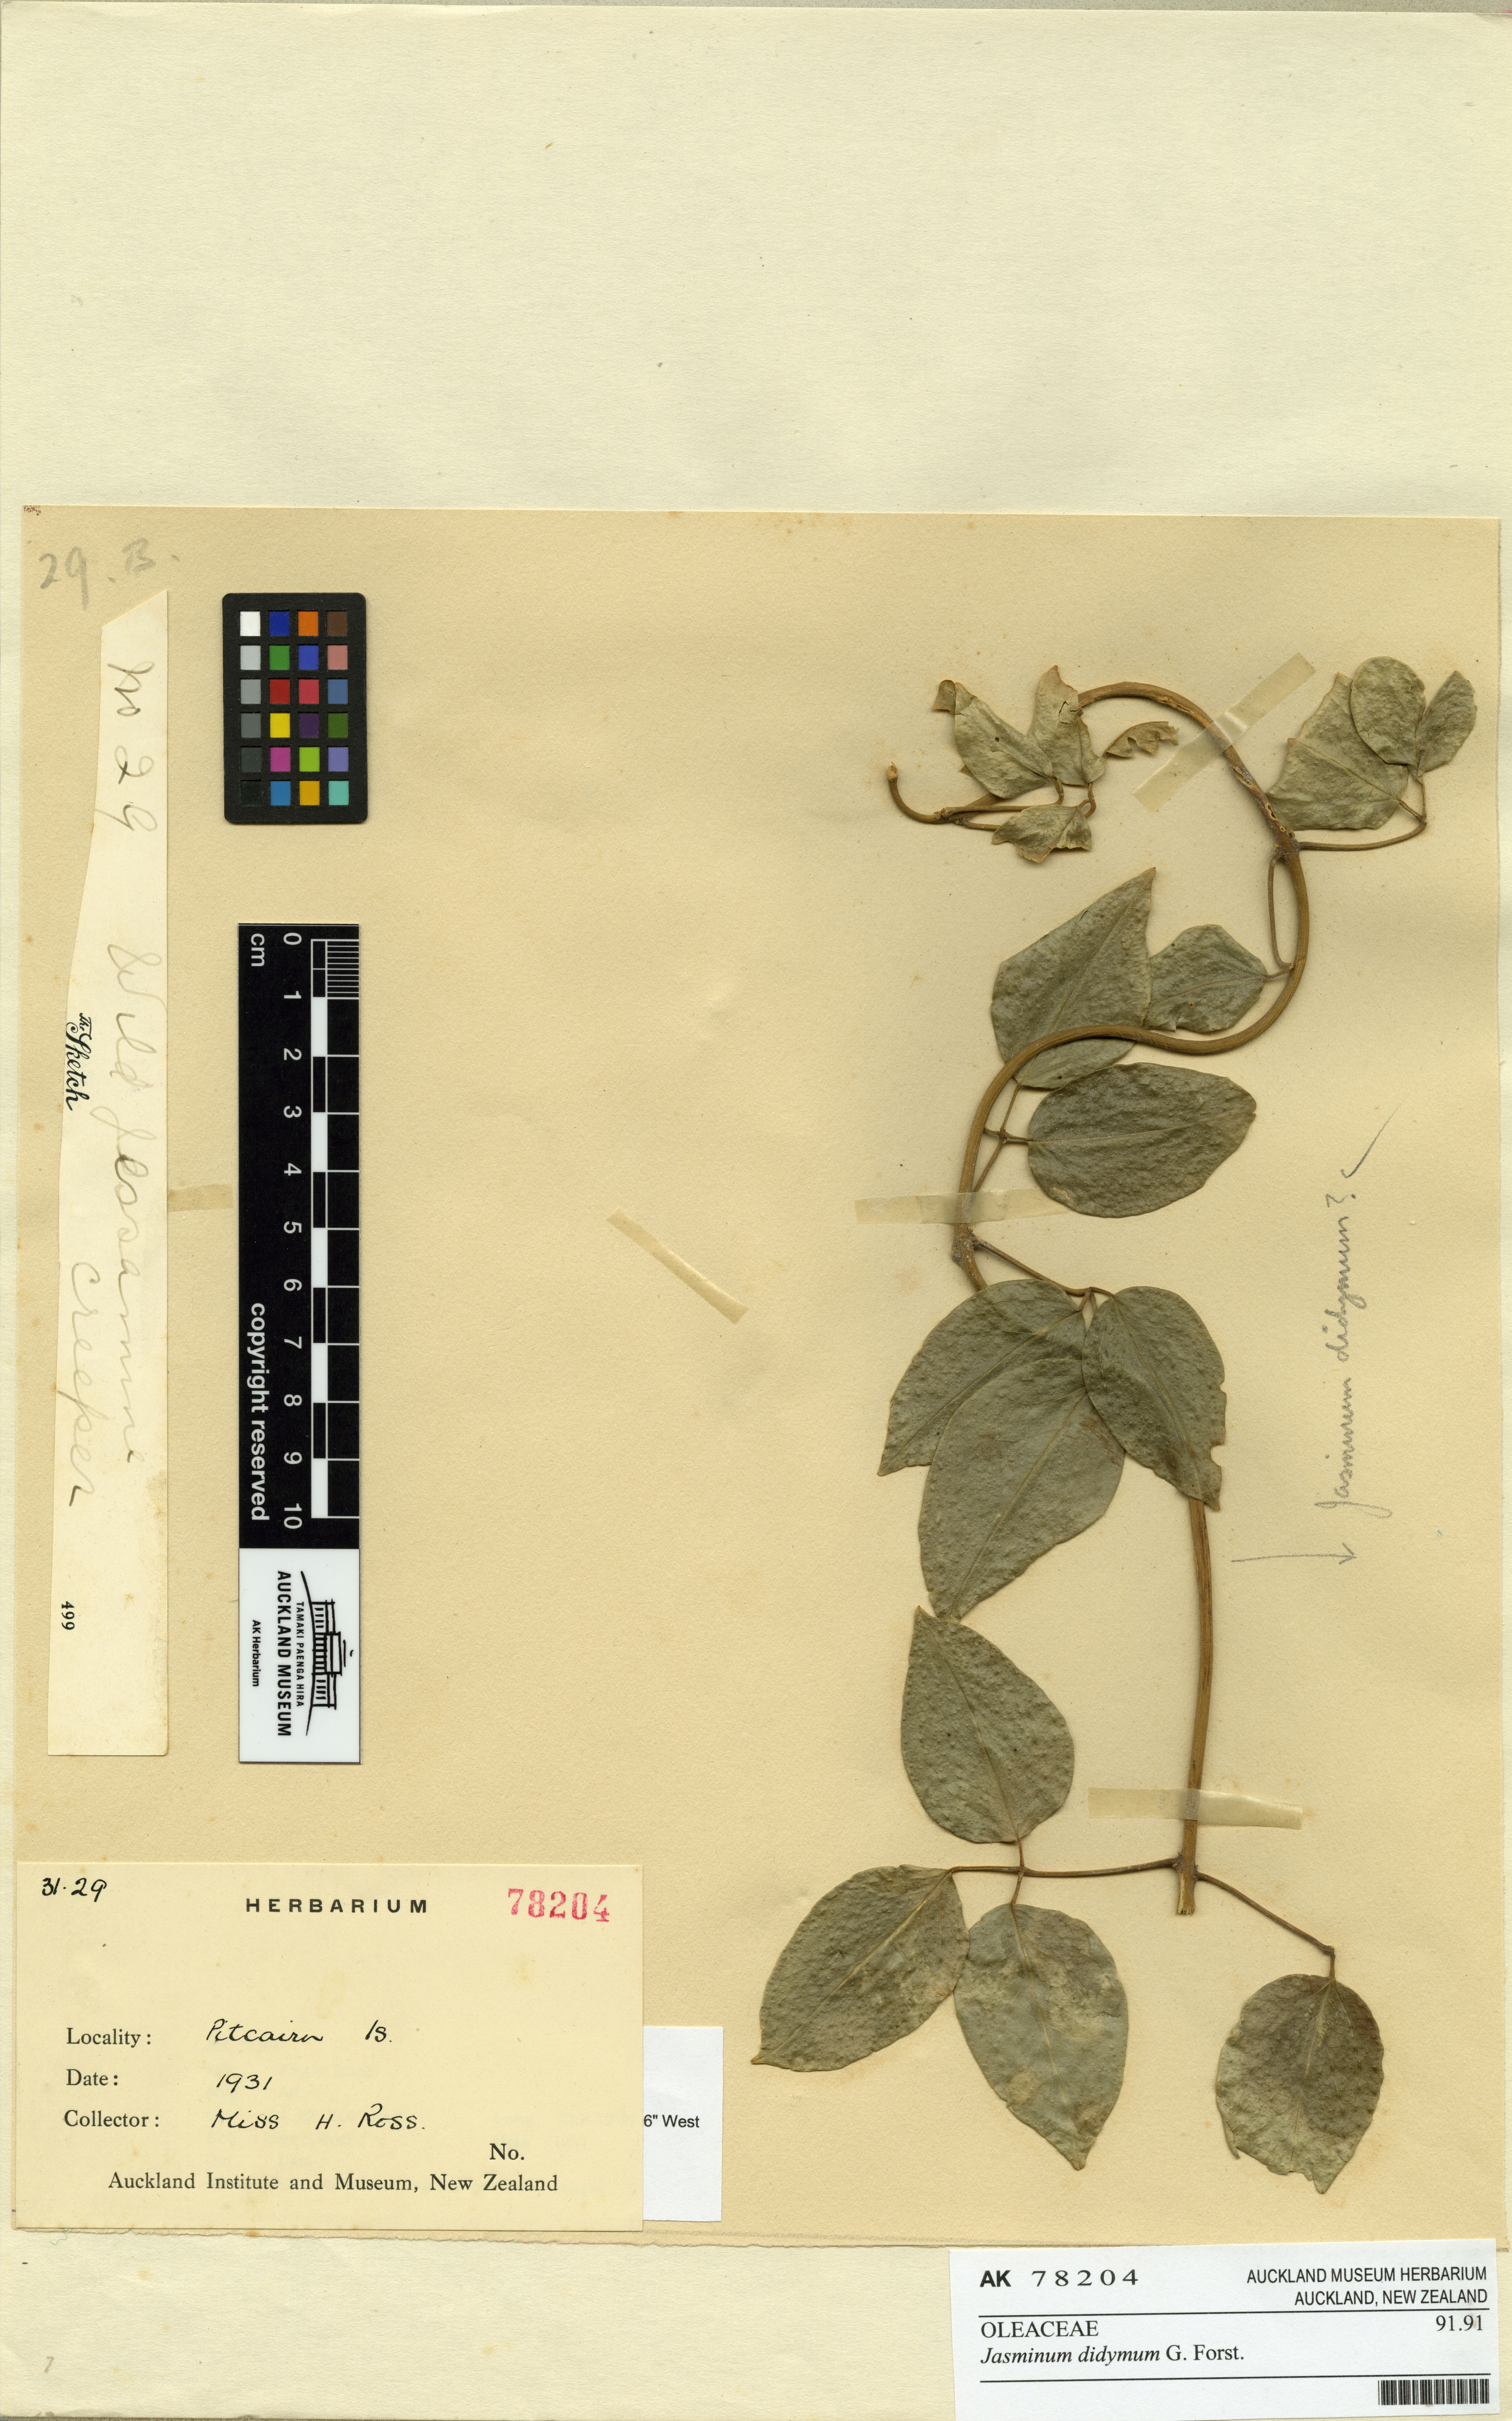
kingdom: Plantae
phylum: Tracheophyta
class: Magnoliopsida
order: Lamiales
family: Oleaceae
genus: Jasminum
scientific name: Jasminum didymum
